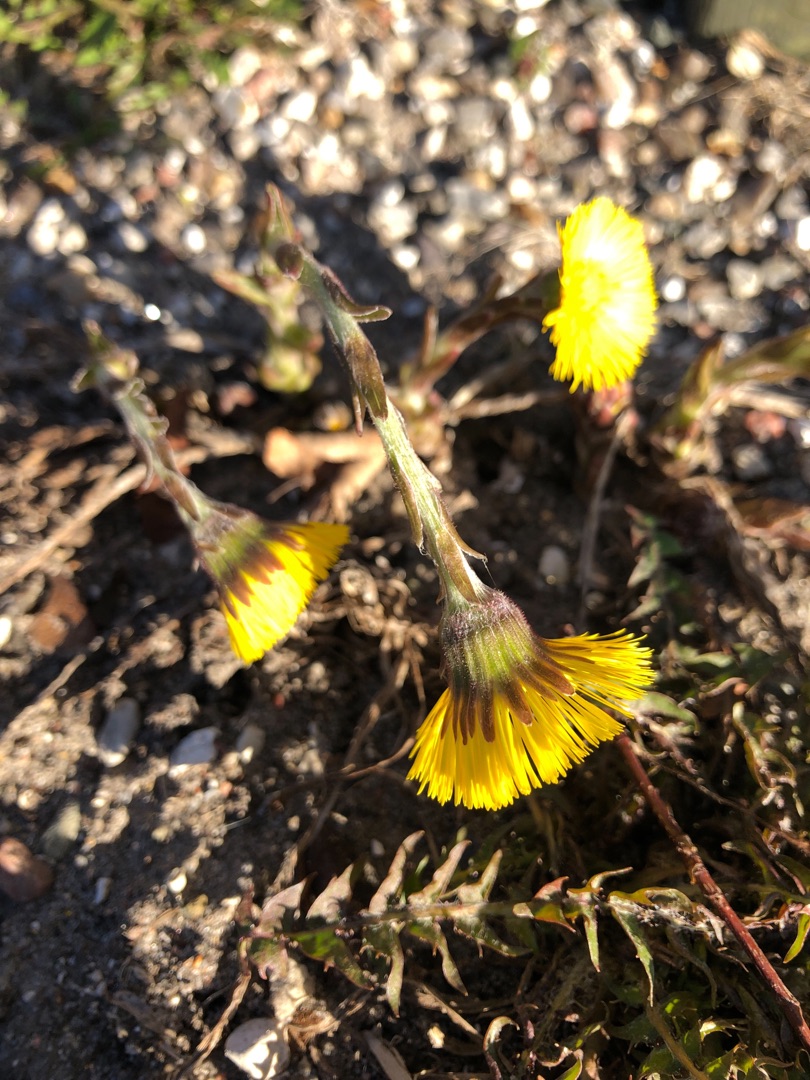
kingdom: Plantae
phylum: Tracheophyta
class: Magnoliopsida
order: Asterales
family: Asteraceae
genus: Tussilago
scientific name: Tussilago farfara
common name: Følfod
